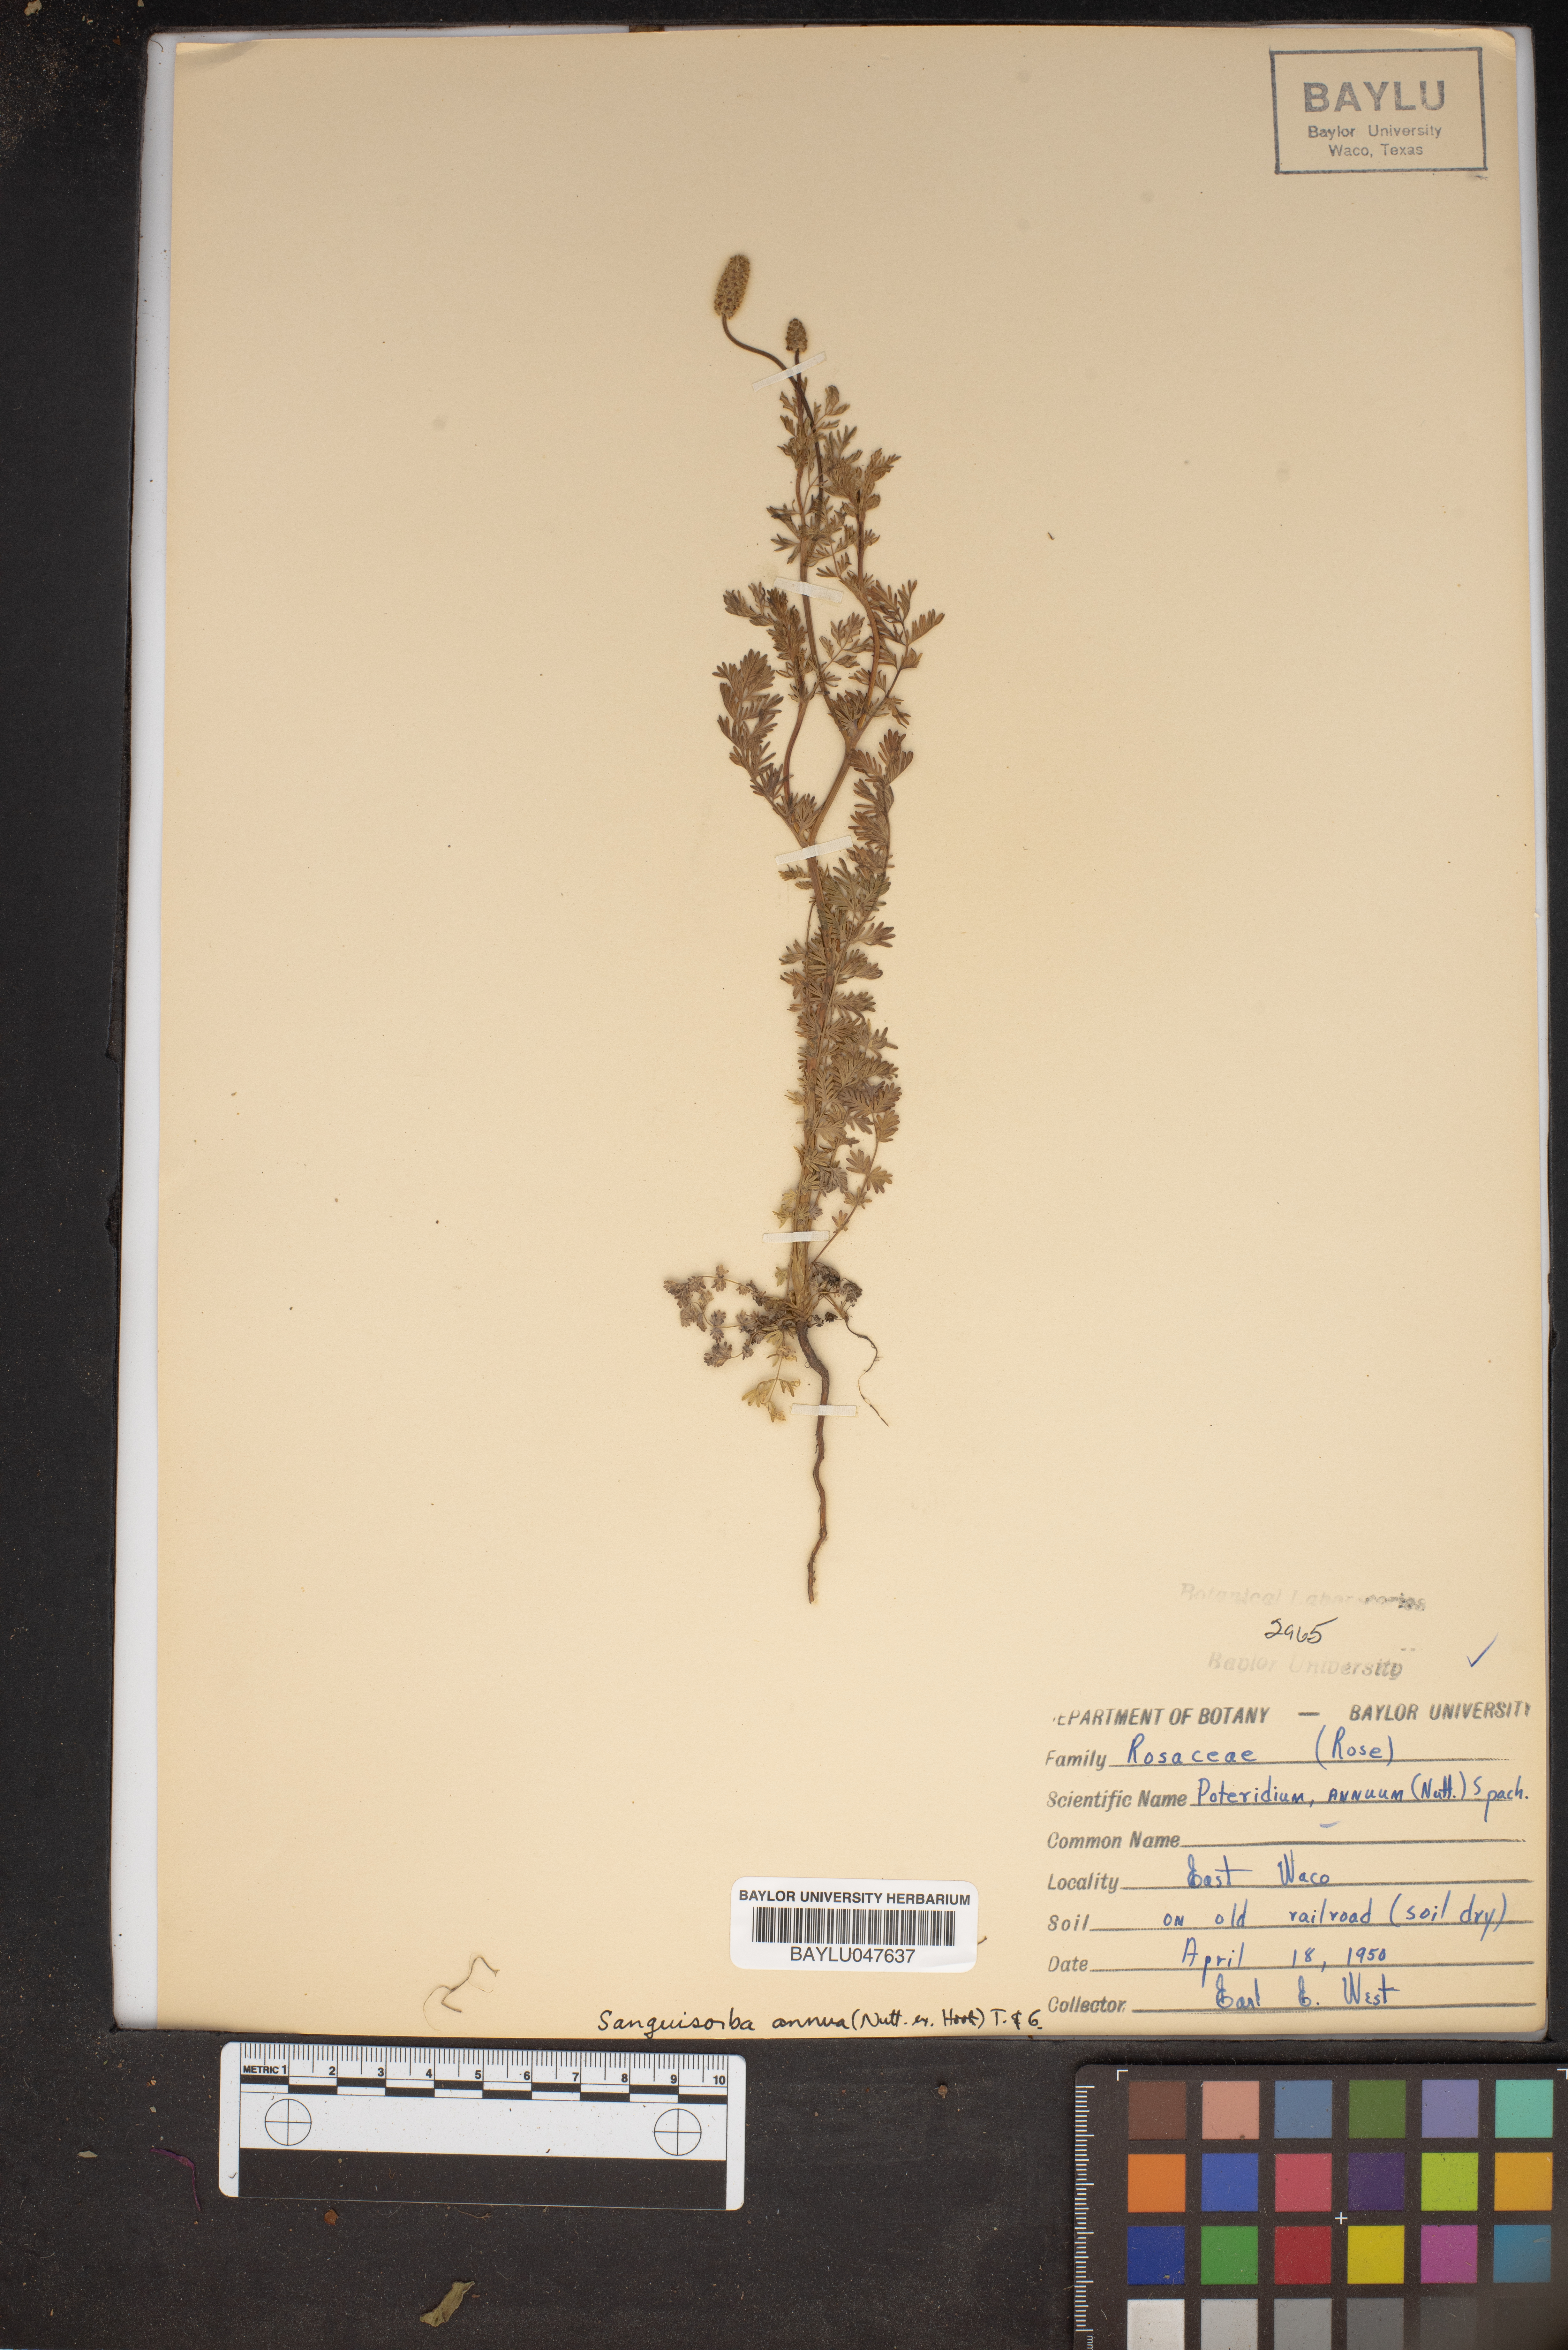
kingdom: Plantae
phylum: Tracheophyta
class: Magnoliopsida
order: Rosales
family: Rosaceae
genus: Poteridium
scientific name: Poteridium annuum
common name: Annual burnet
